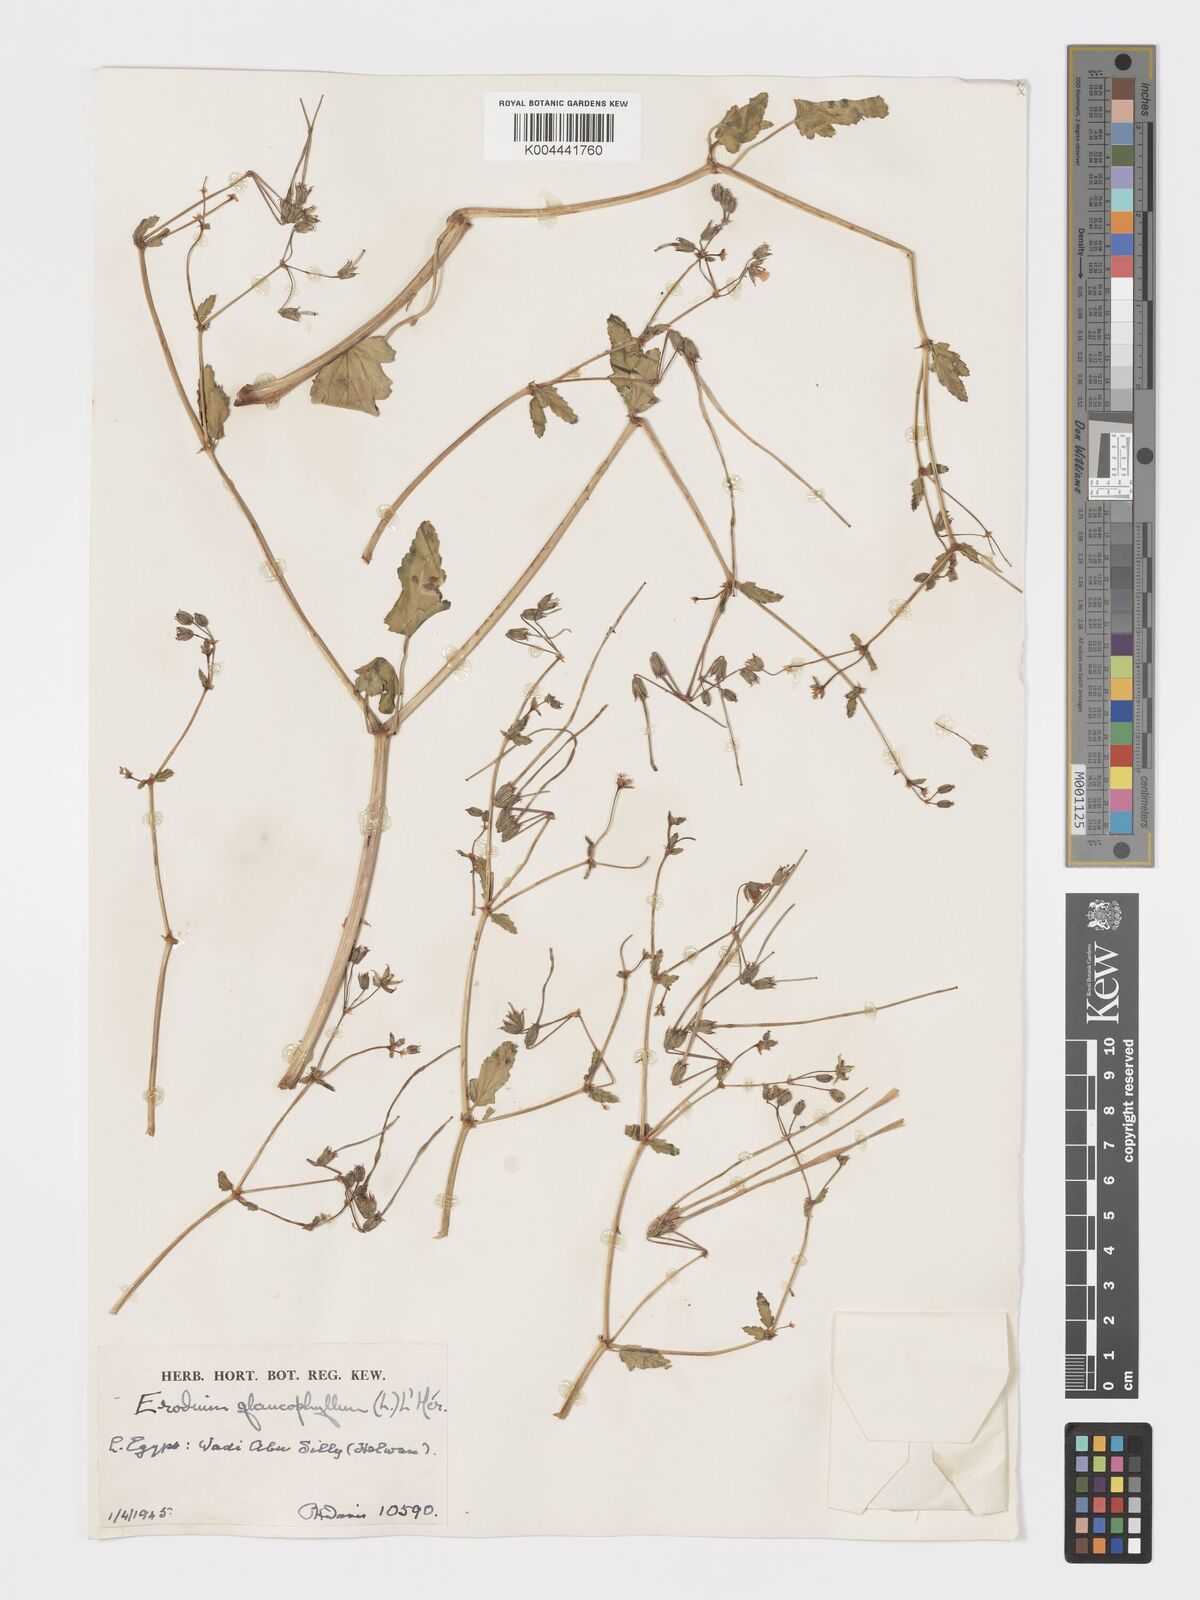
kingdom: Plantae
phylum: Tracheophyta
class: Magnoliopsida
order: Geraniales
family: Geraniaceae
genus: Erodium
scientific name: Erodium glaucophyllum
